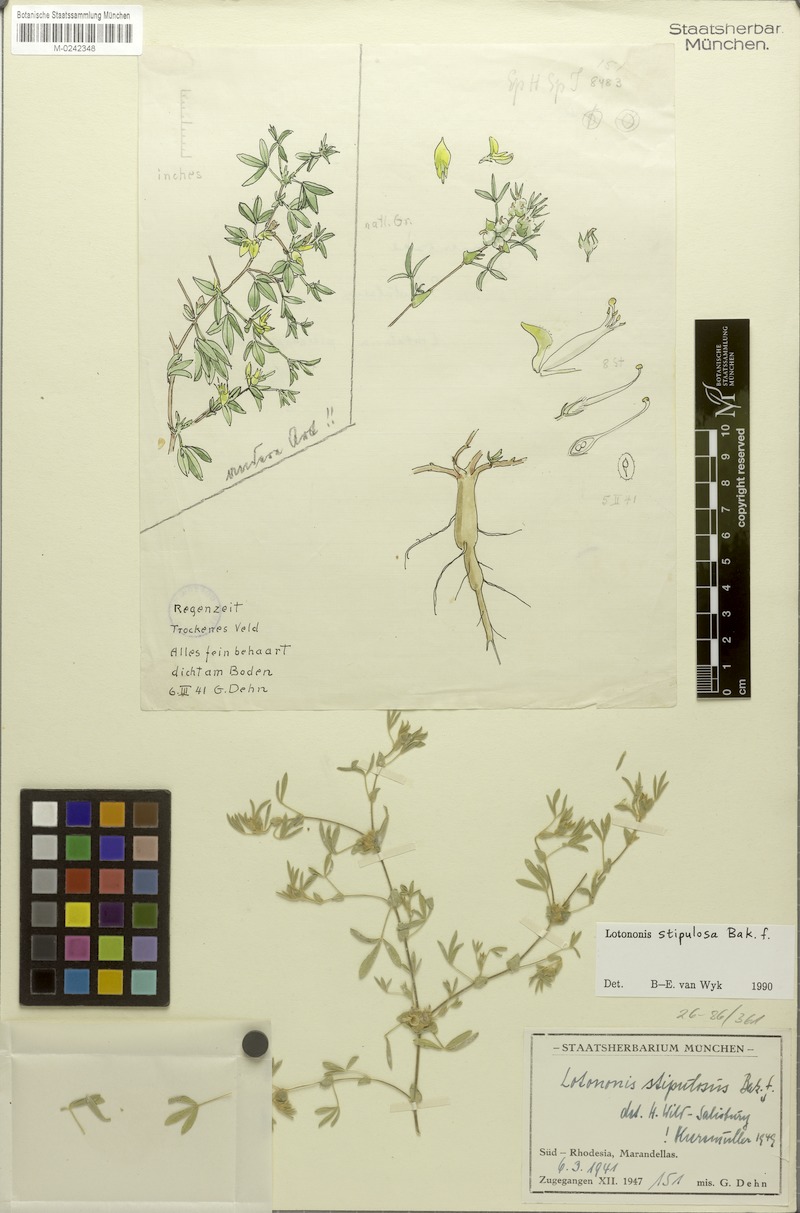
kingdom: Plantae
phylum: Tracheophyta
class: Magnoliopsida
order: Fabales
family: Fabaceae
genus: Leobordea
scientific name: Leobordea stipulosa
